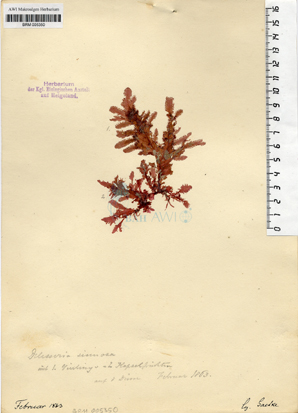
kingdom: Plantae
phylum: Rhodophyta
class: Florideophyceae
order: Ceramiales
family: Delesseriaceae
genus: Phycodrys
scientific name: Phycodrys rubens
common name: Sea oak
